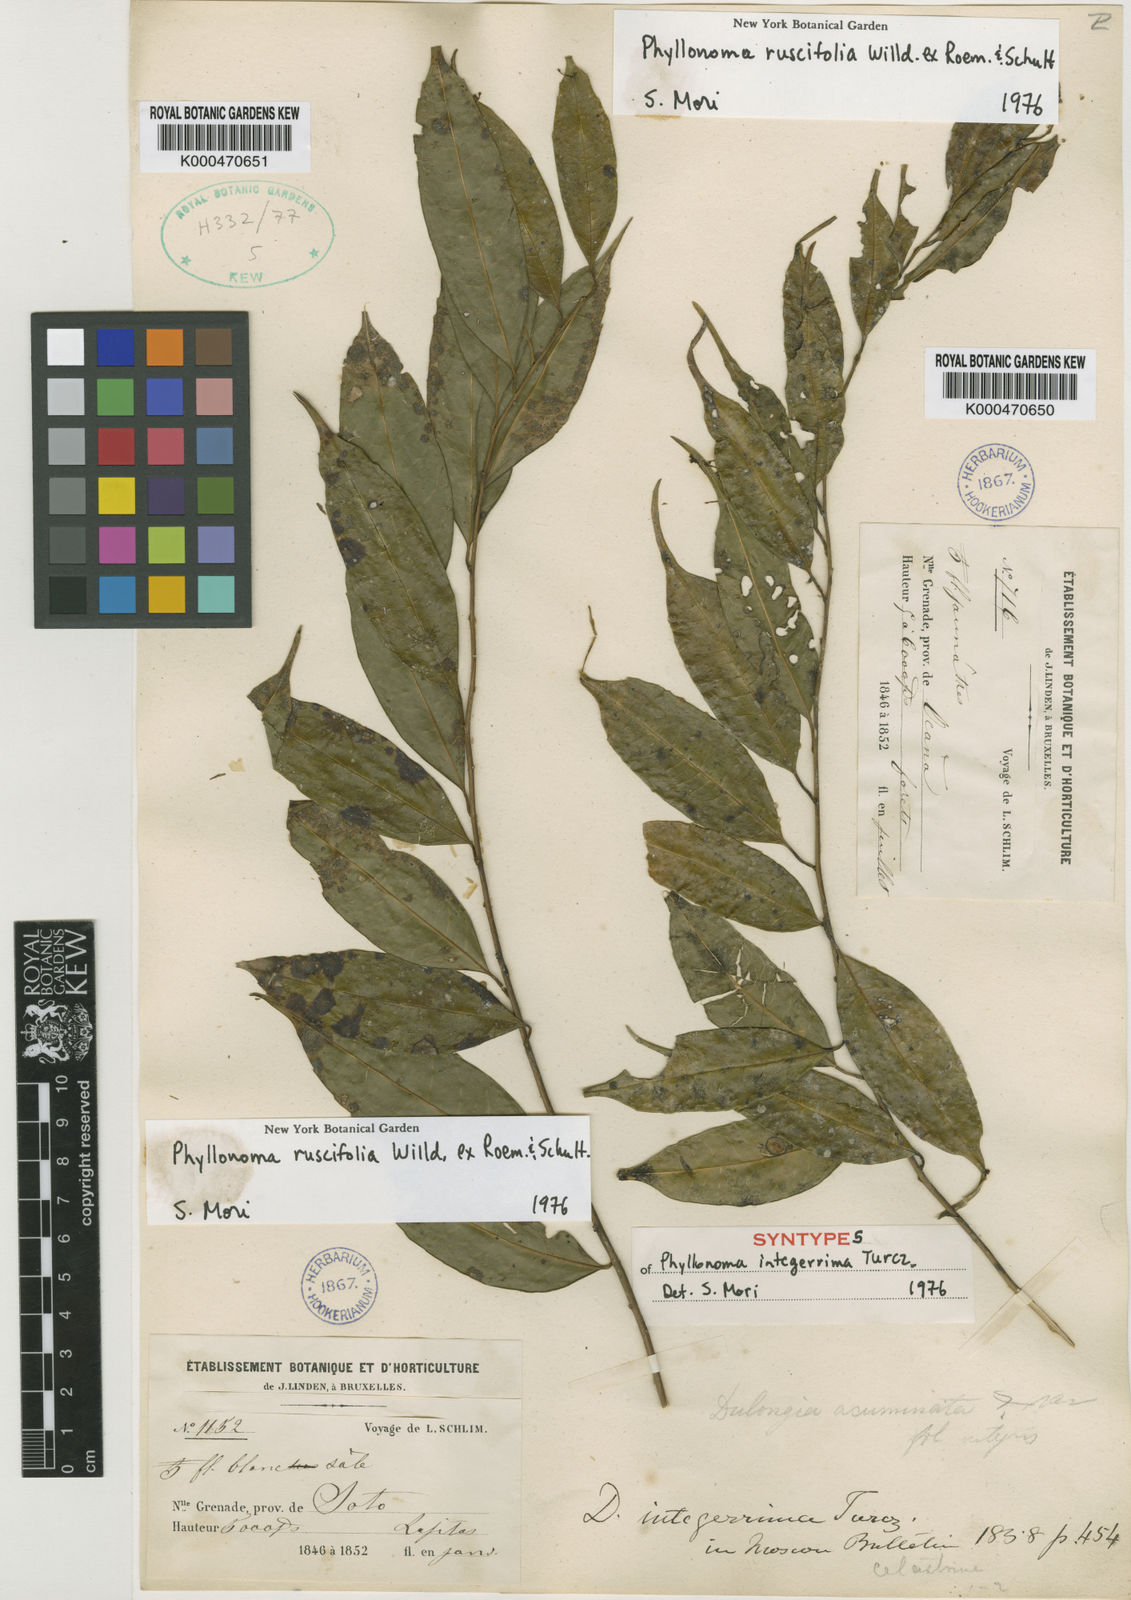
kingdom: Plantae
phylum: Tracheophyta
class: Magnoliopsida
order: Aquifoliales
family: Phyllonomaceae
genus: Phyllonoma
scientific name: Phyllonoma ruscifolia
